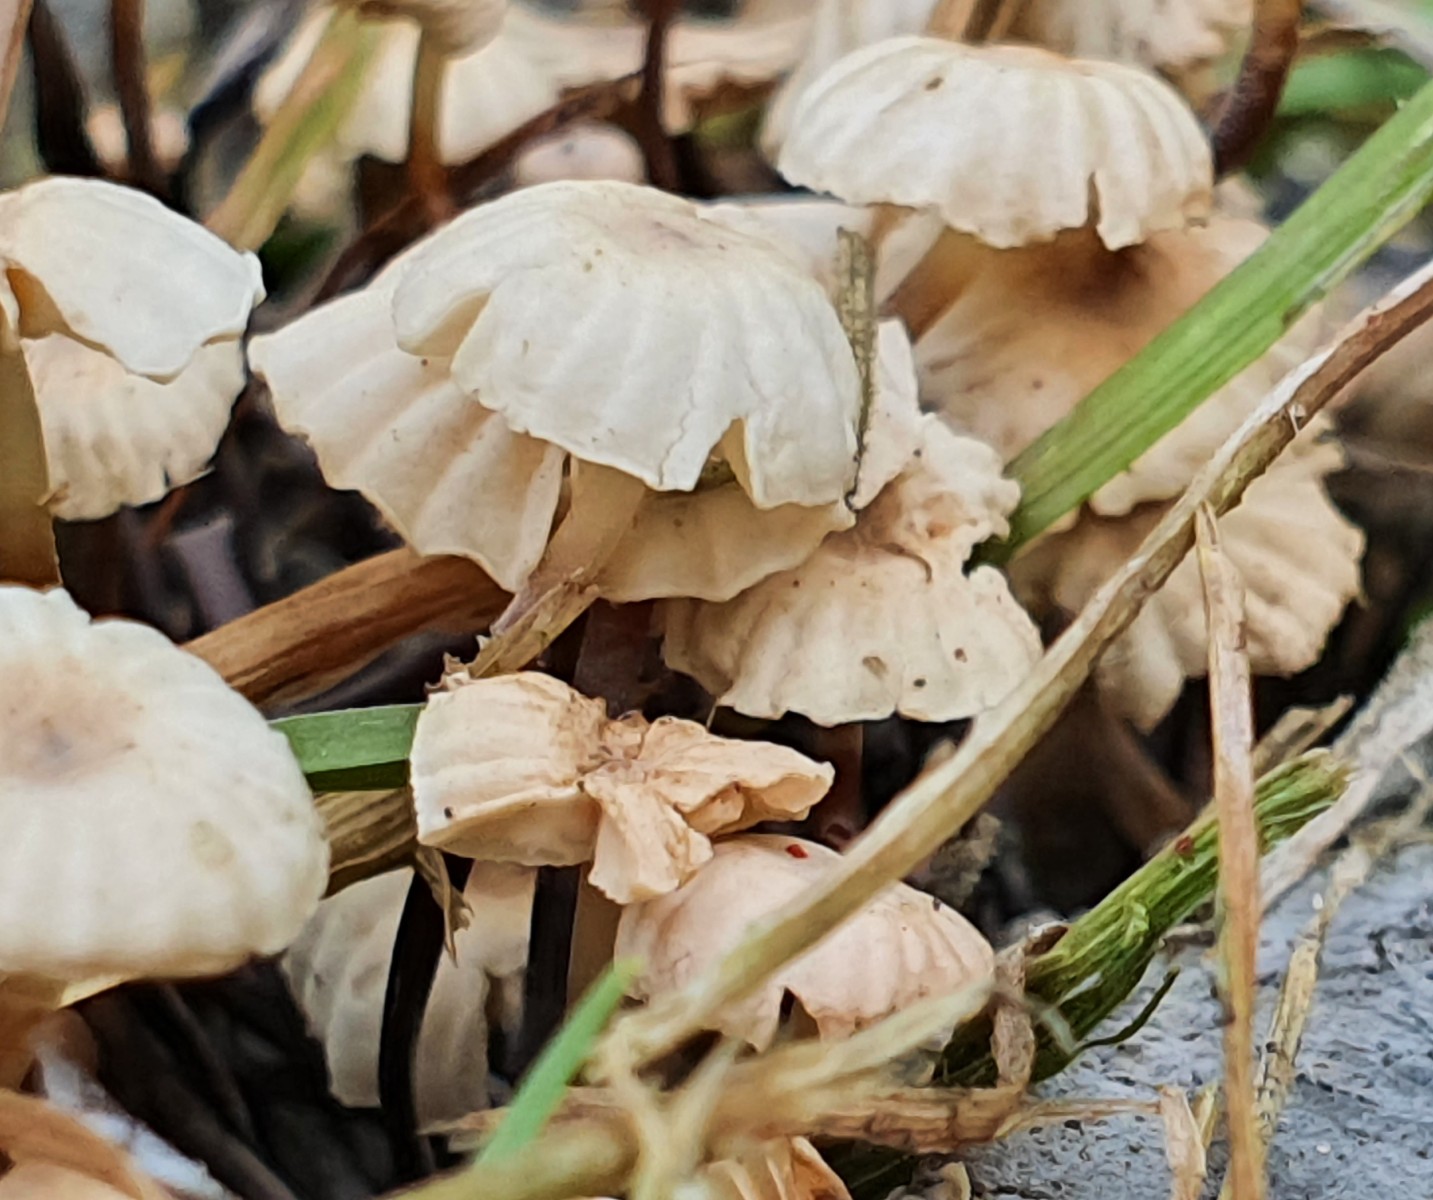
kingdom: Fungi
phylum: Basidiomycota
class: Agaricomycetes
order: Agaricales
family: Marasmiaceae
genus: Marasmius
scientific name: Marasmius rotula
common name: hjul-bruskhat
